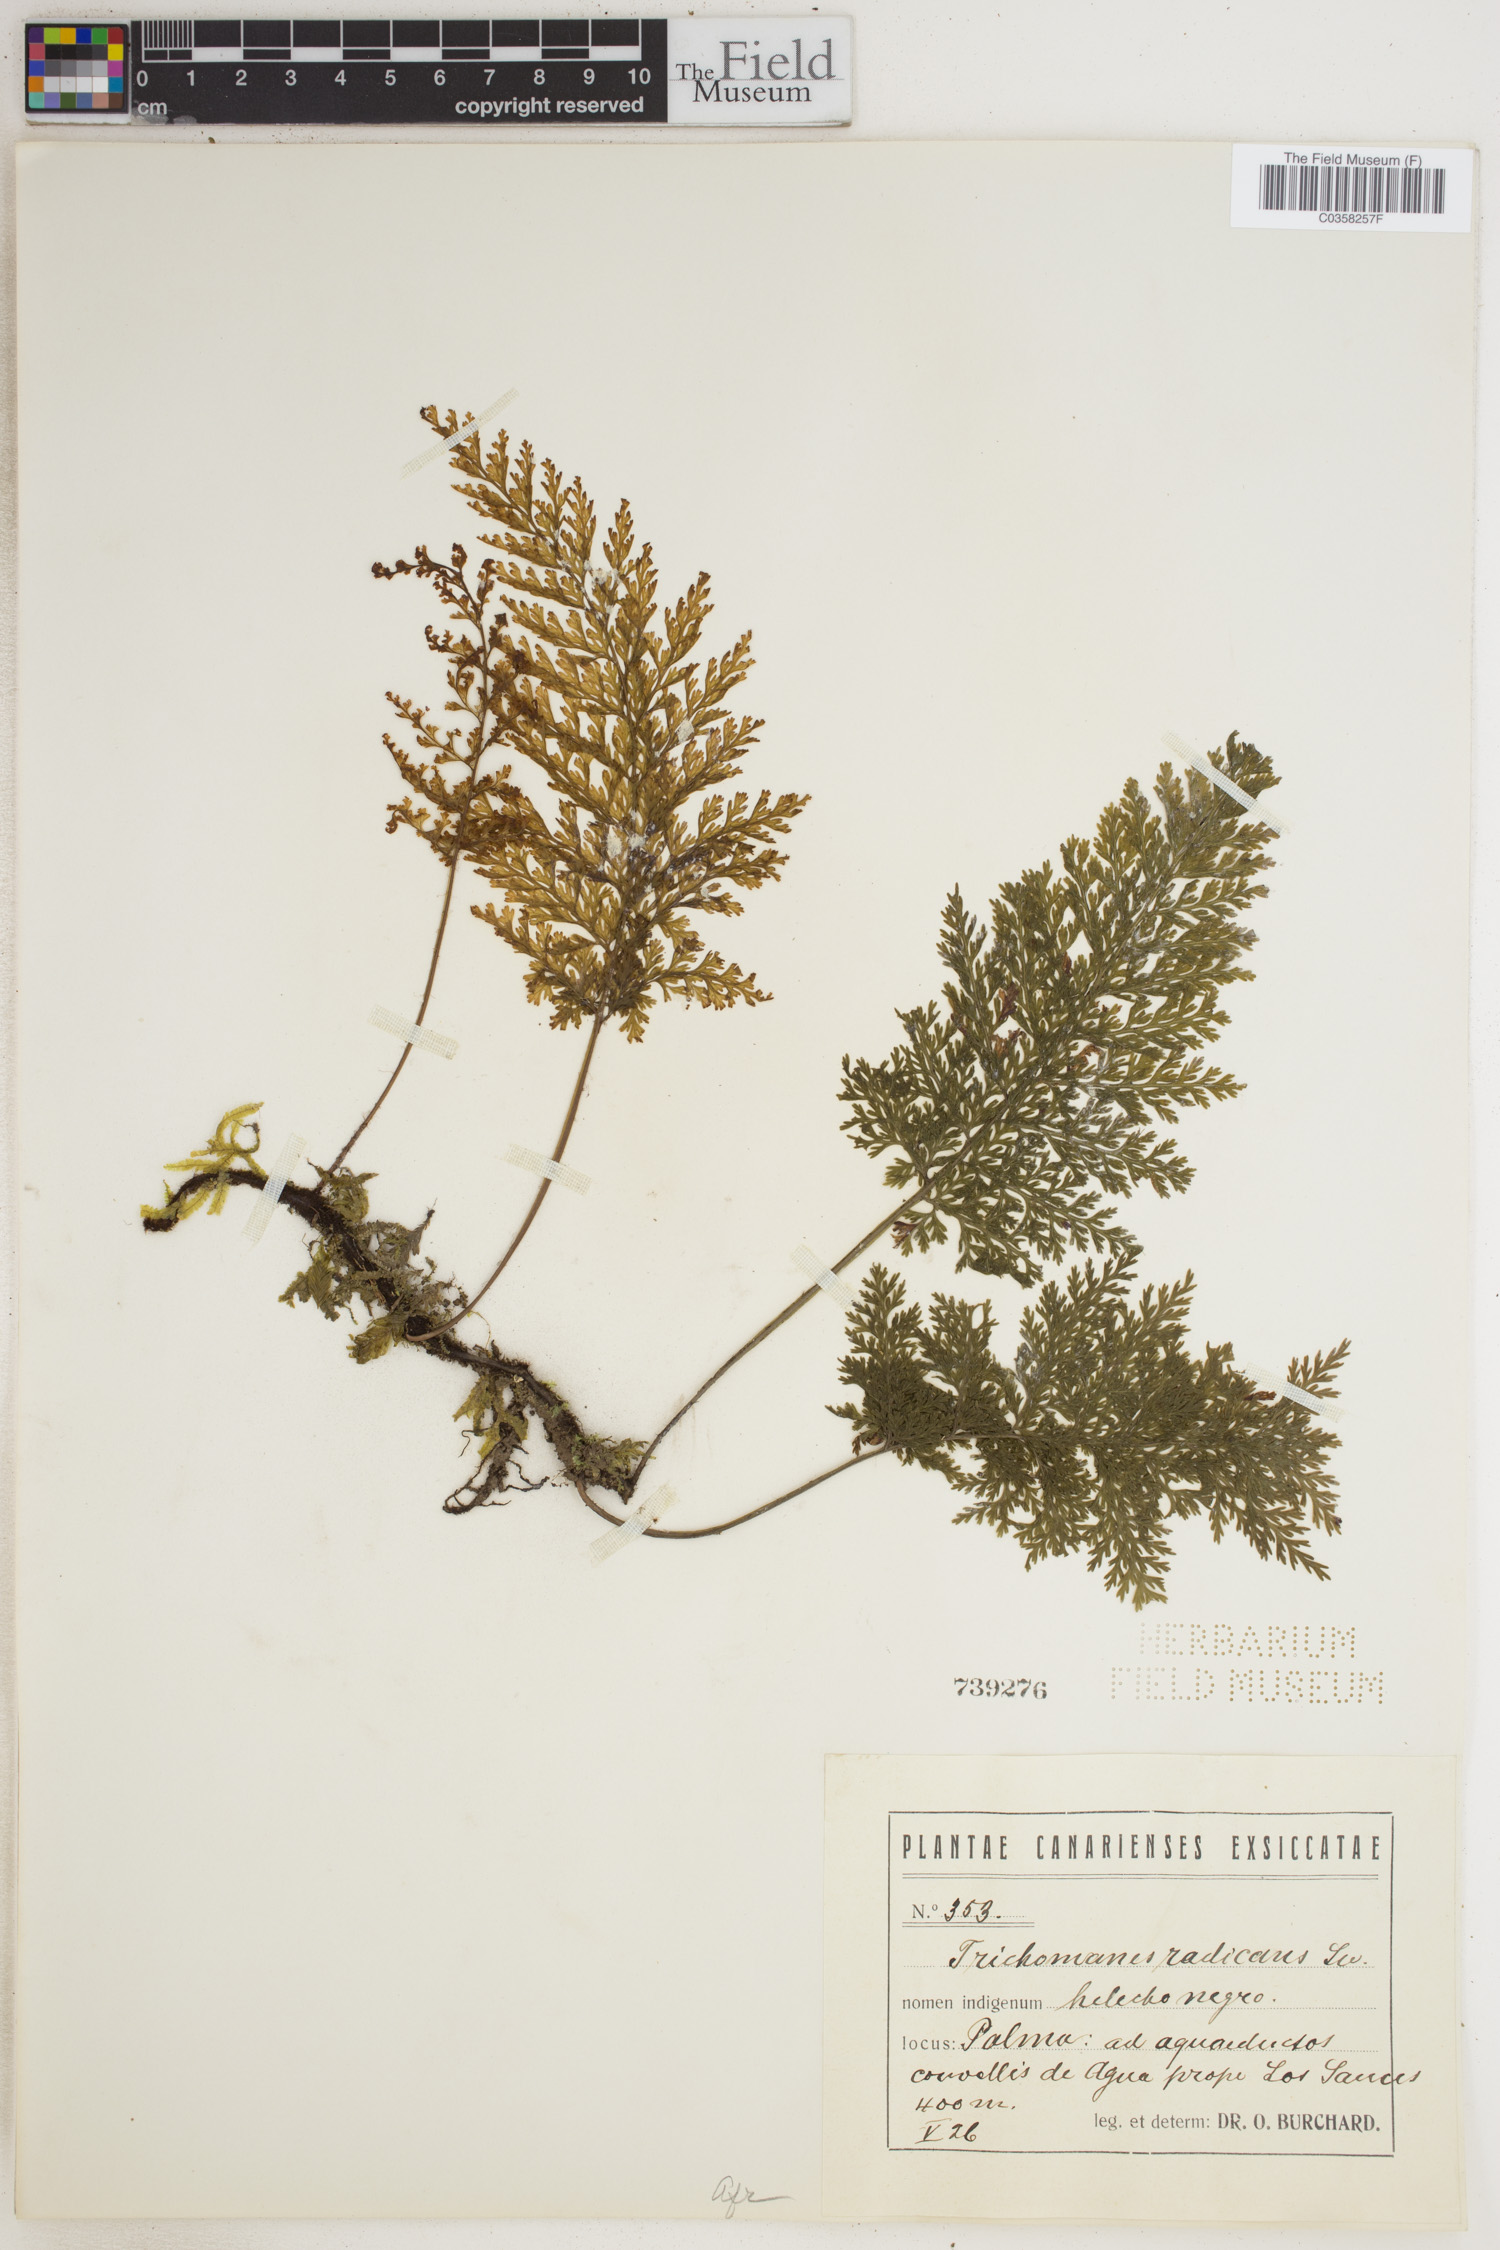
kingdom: Plantae
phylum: Tracheophyta
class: Polypodiopsida
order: Hymenophyllales
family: Hymenophyllaceae
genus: Vandenboschia
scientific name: Vandenboschia radicans
